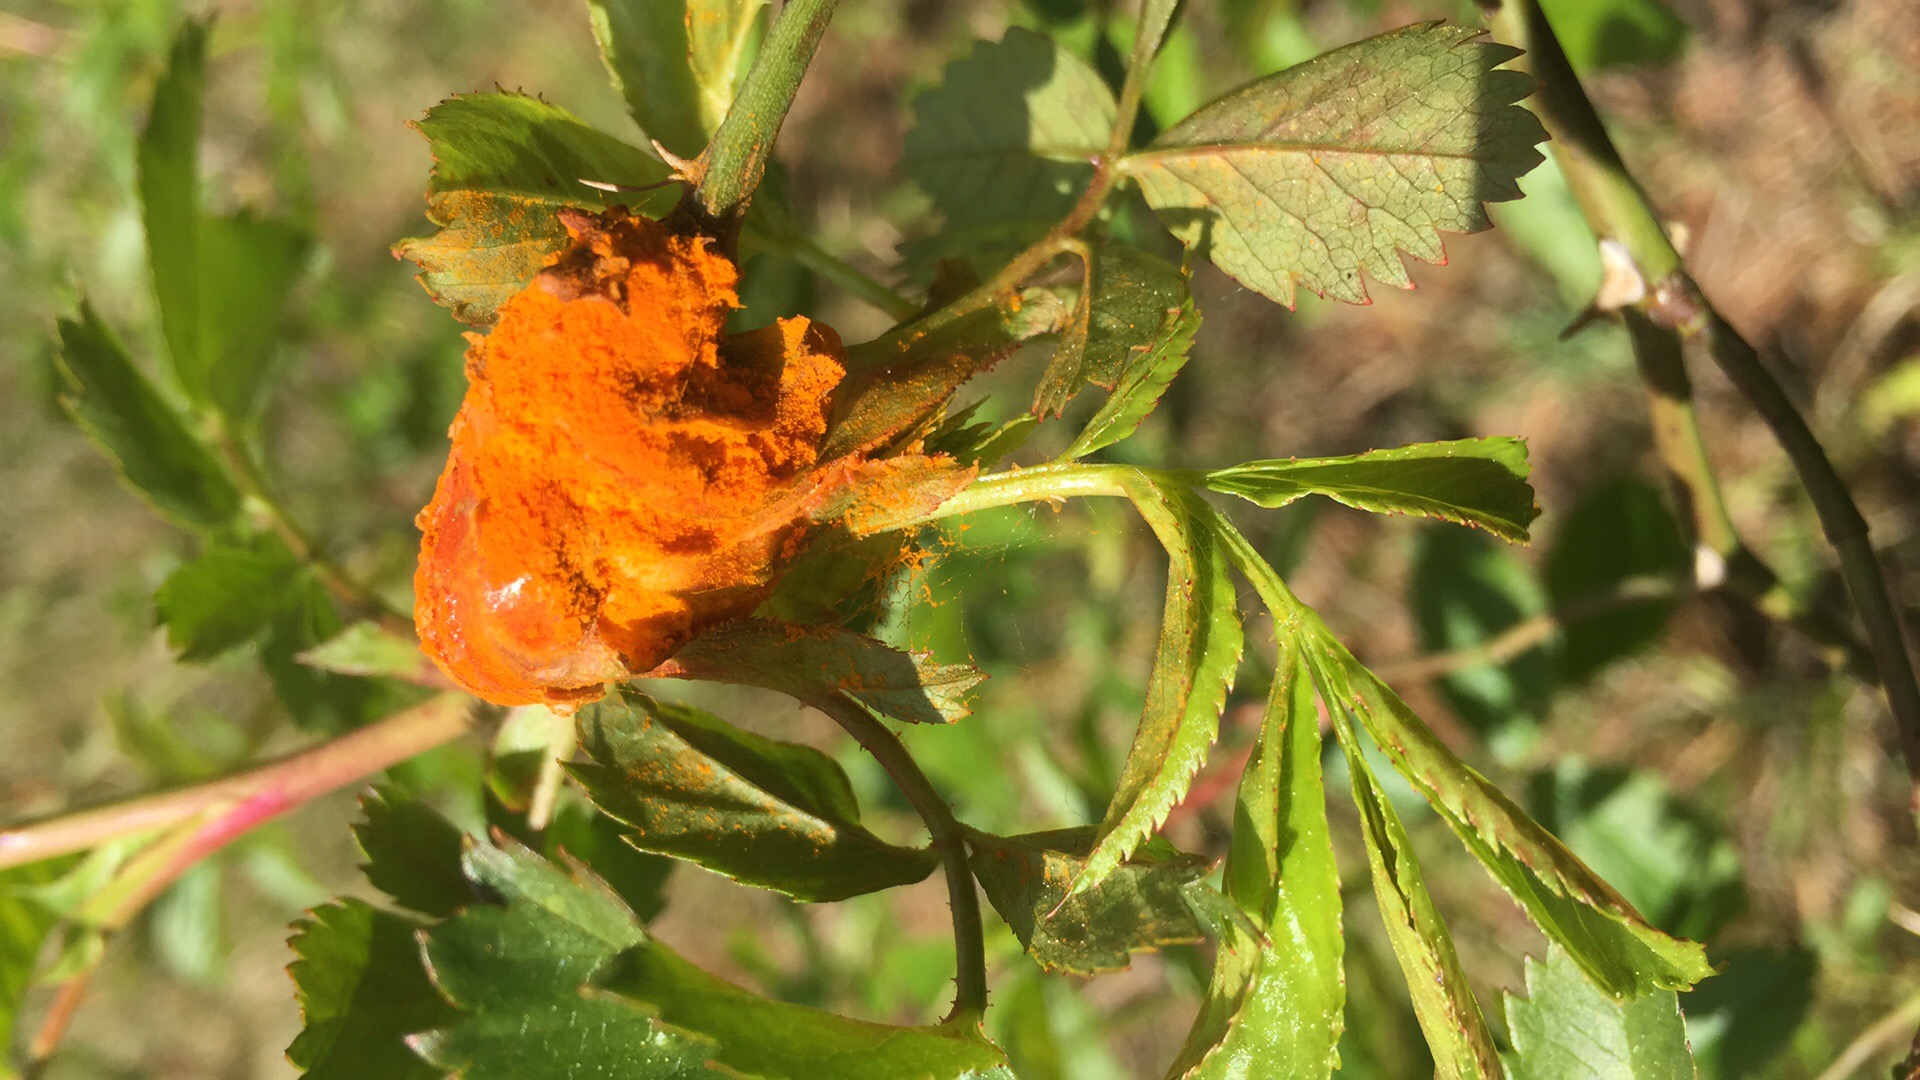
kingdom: Fungi
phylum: Basidiomycota
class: Pucciniomycetes
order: Pucciniales
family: Phragmidiaceae
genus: Phragmidium
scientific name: Phragmidium mucronatum
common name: rose-flercellerust
